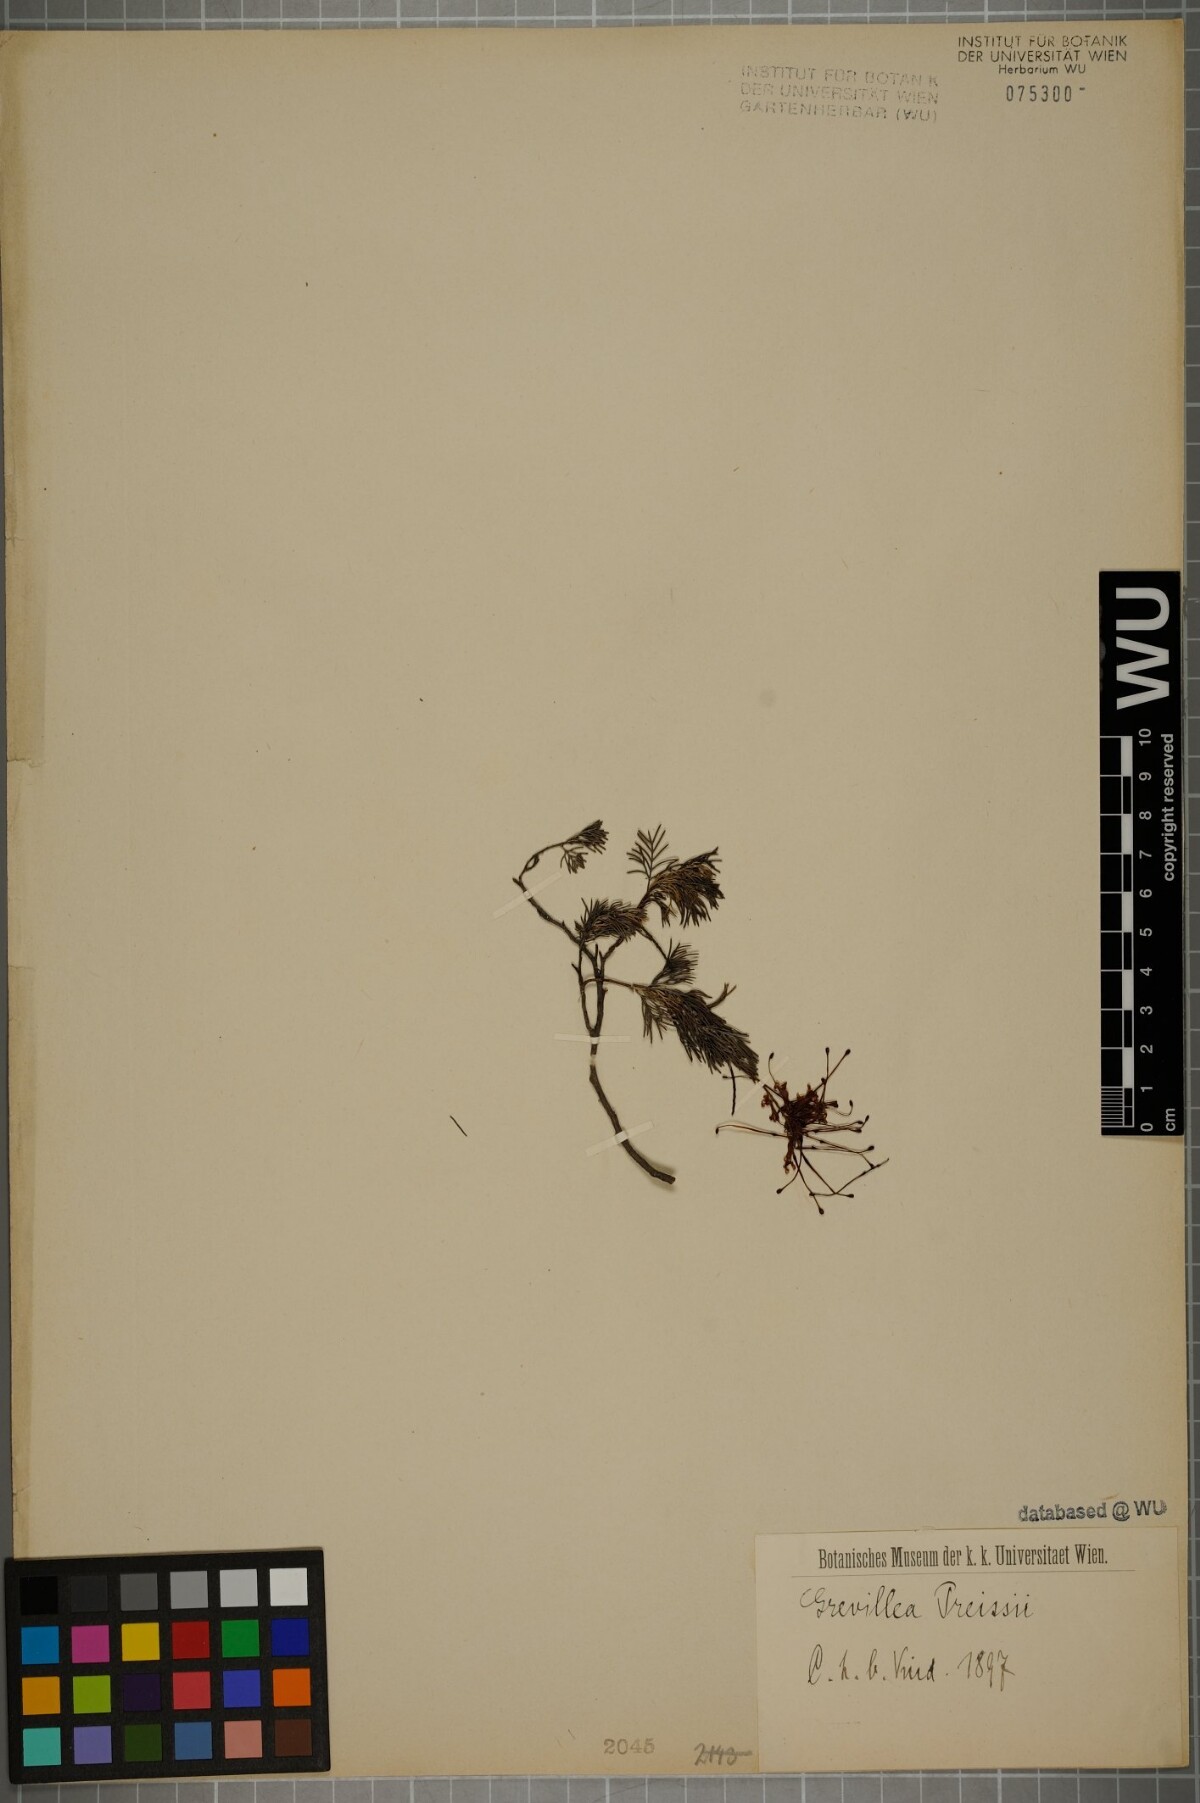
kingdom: Plantae
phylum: Tracheophyta
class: Magnoliopsida
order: Proteales
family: Proteaceae
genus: Grevillea
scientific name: Grevillea thelemanniana
